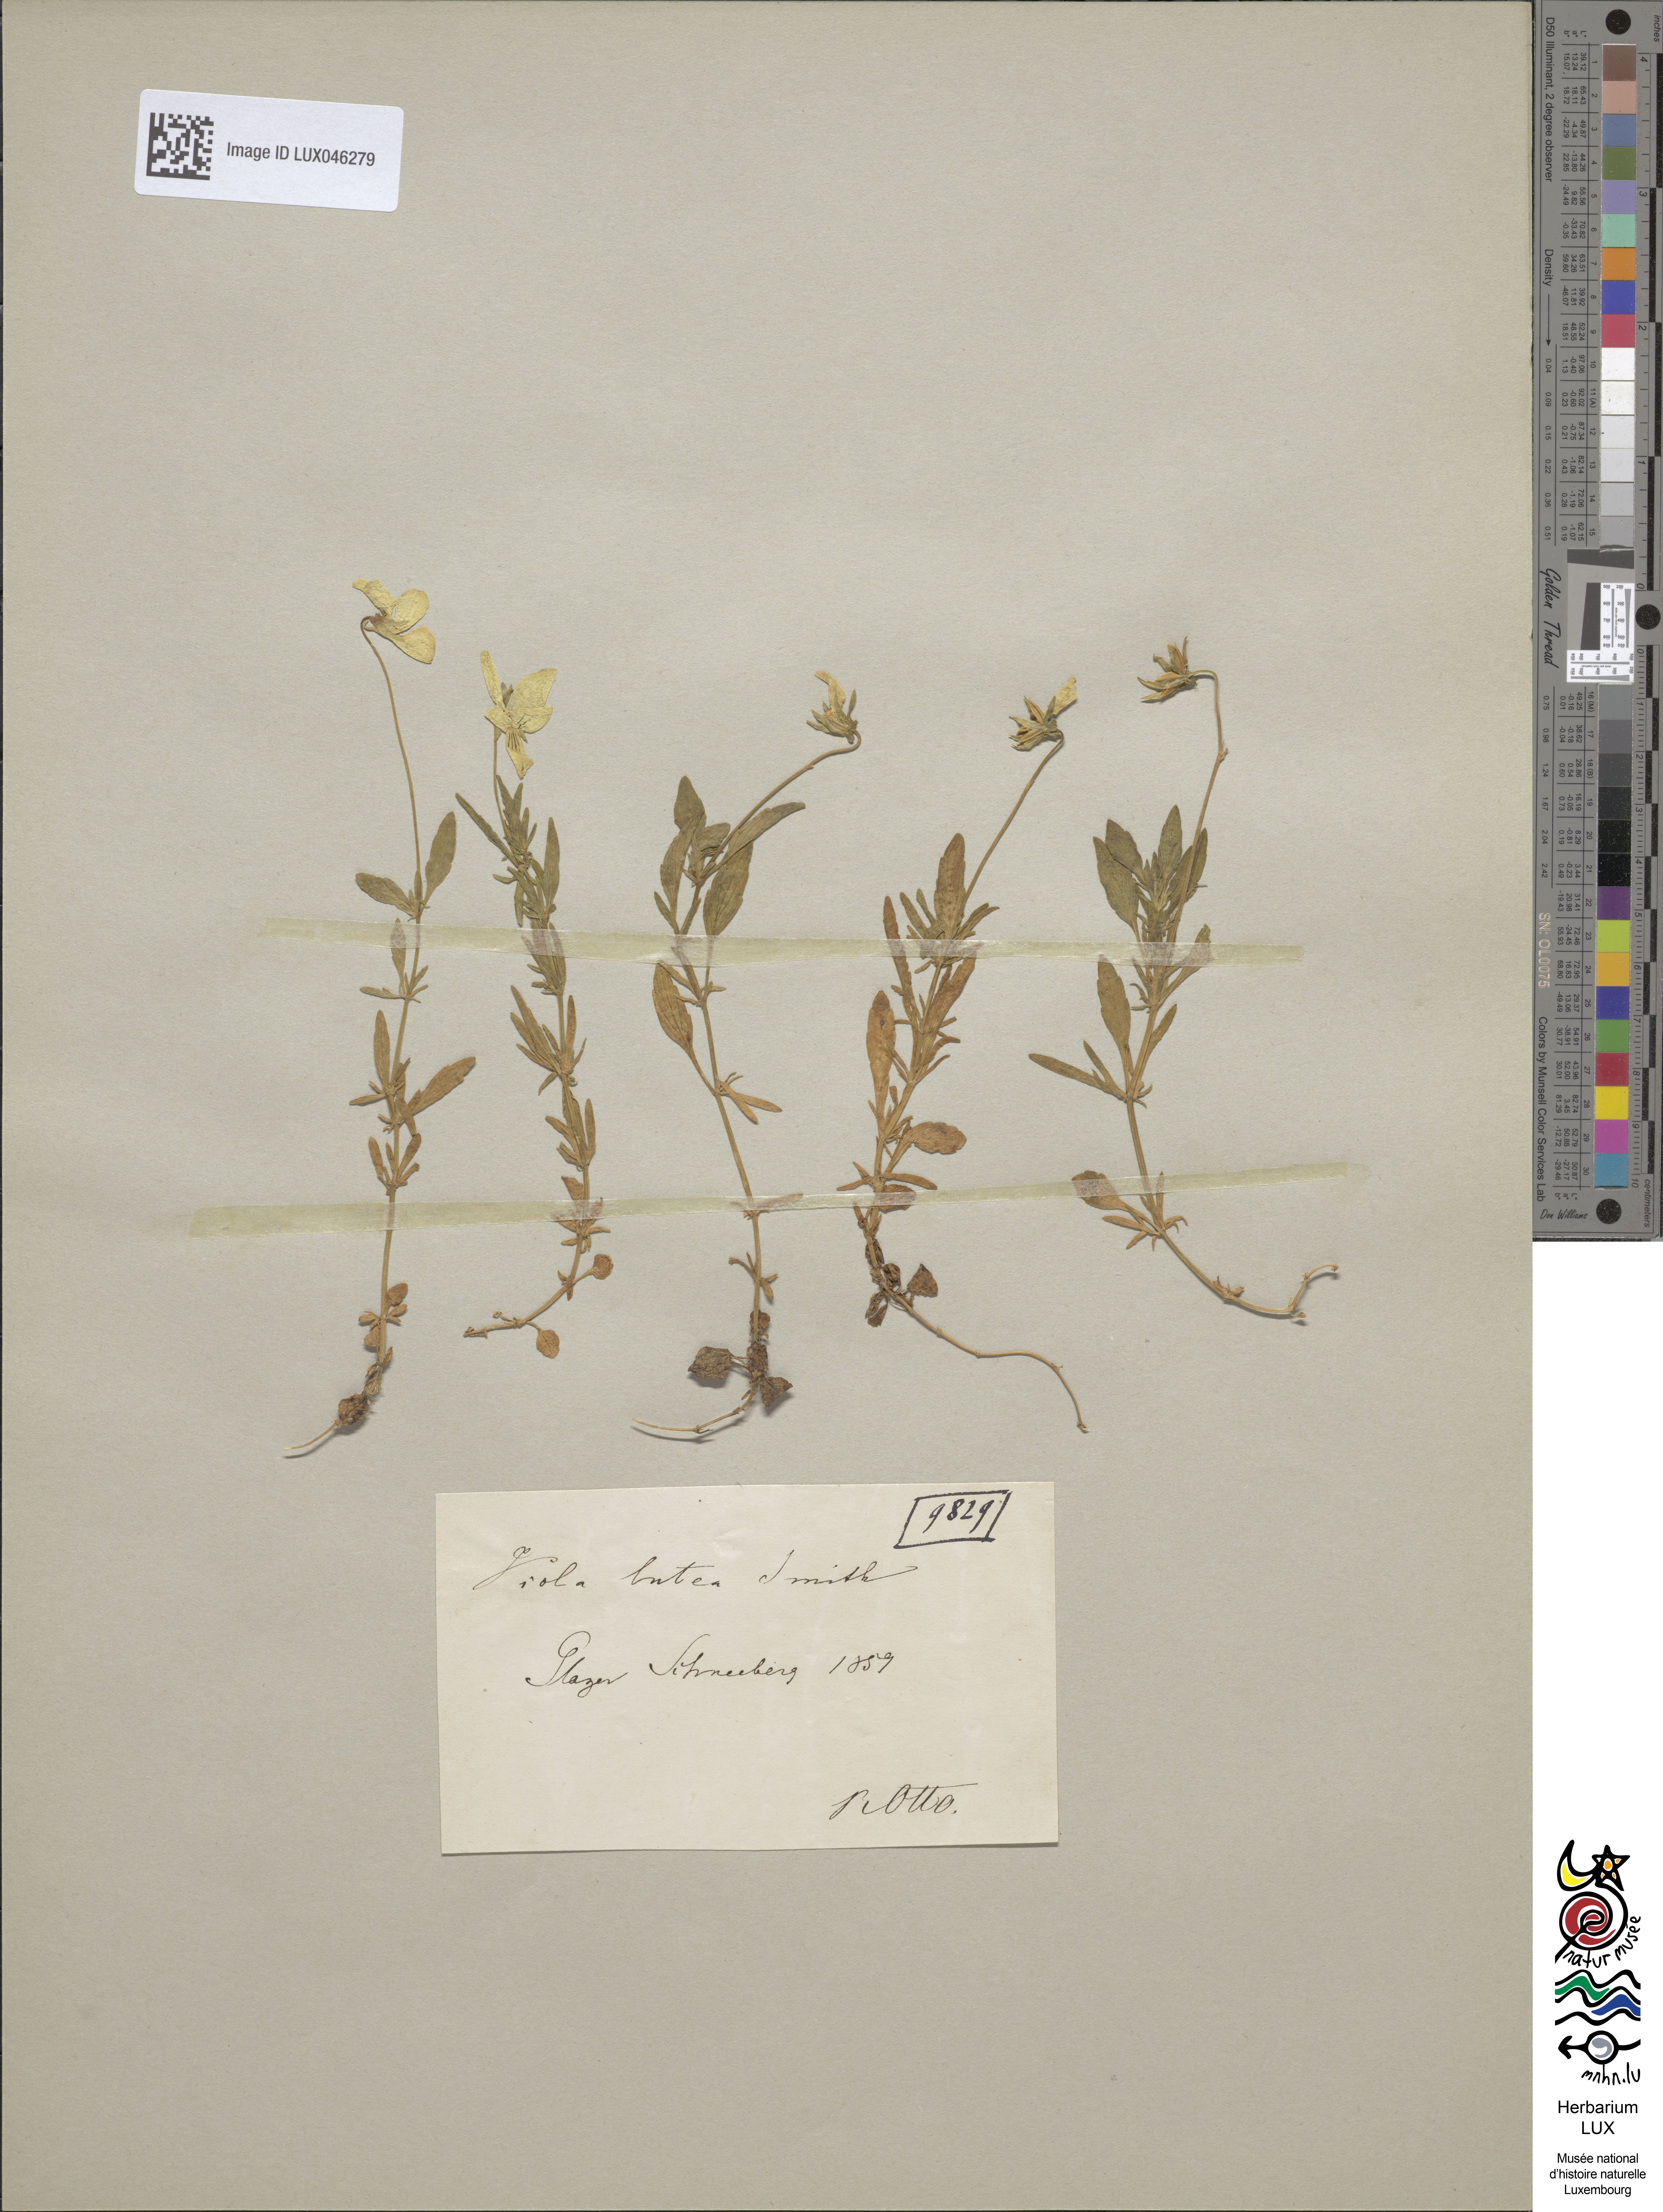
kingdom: Plantae
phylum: Tracheophyta
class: Magnoliopsida
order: Malpighiales
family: Violaceae
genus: Viola
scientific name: Viola lutea
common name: Mountain pansy
